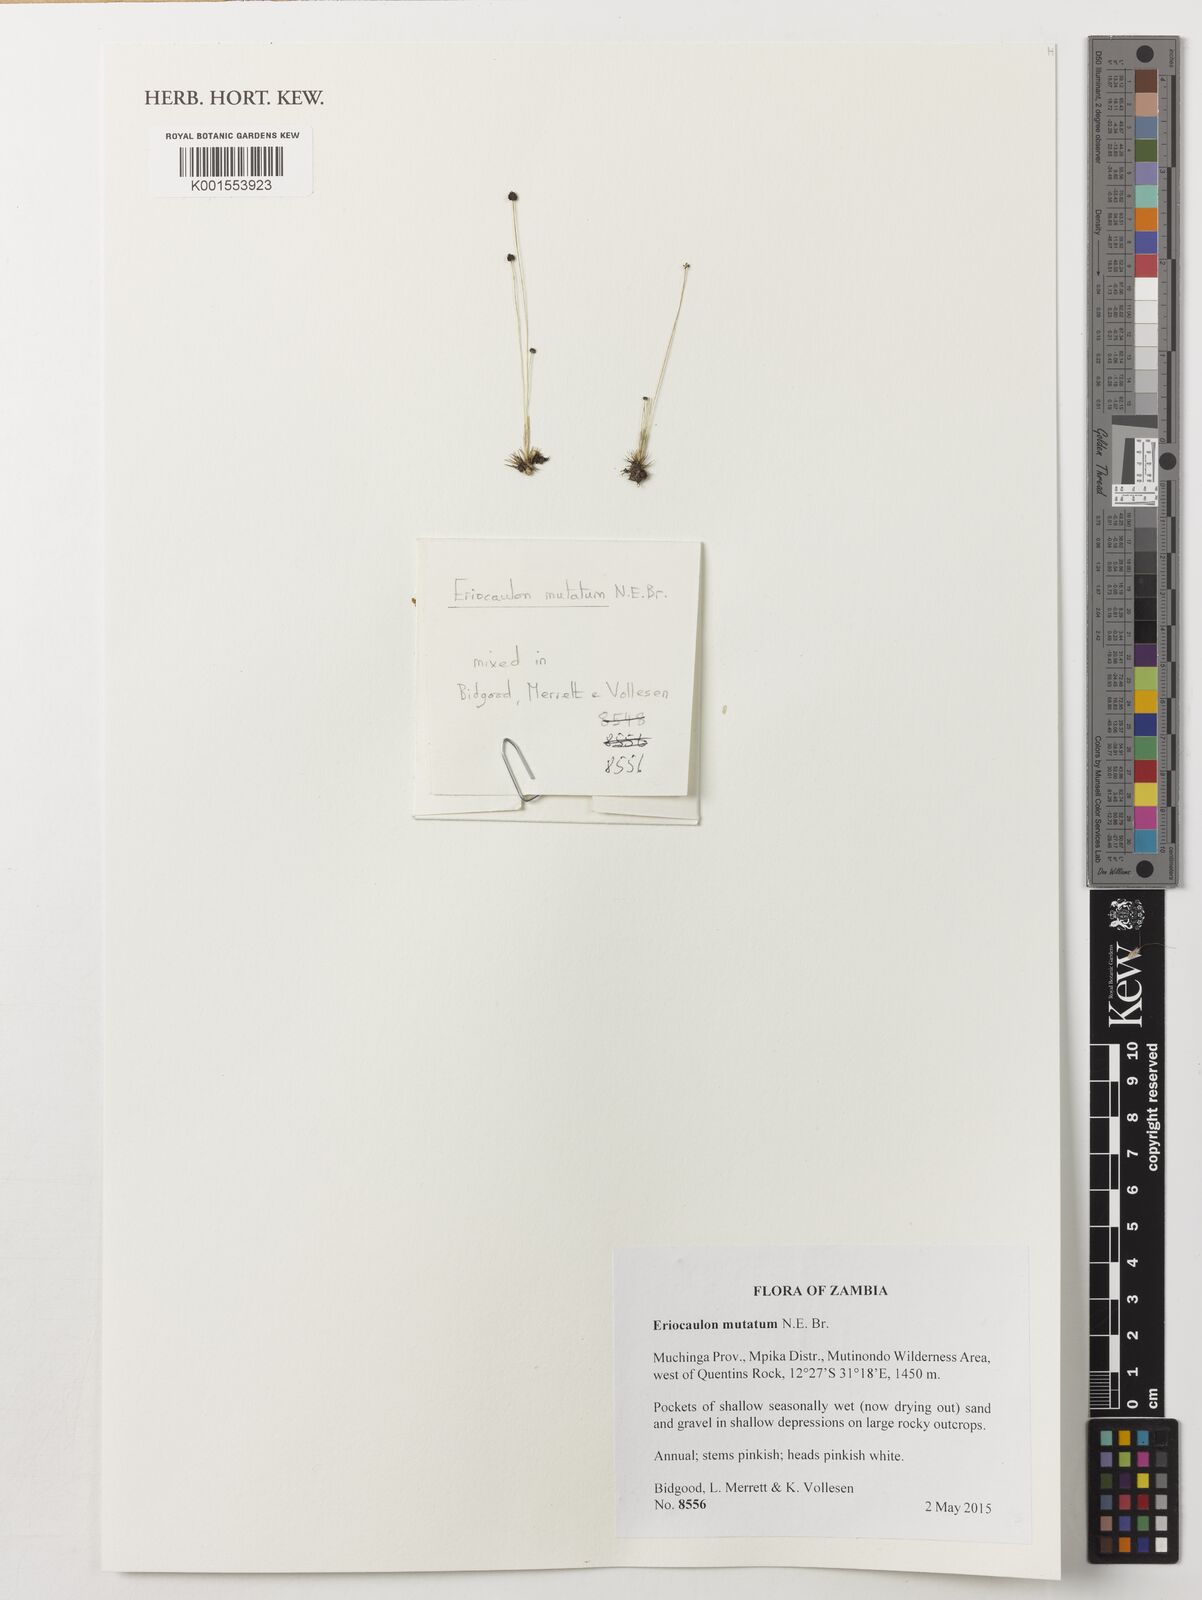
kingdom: Plantae
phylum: Tracheophyta
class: Liliopsida
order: Poales
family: Eriocaulaceae
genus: Eriocaulon
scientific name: Eriocaulon mutatum
